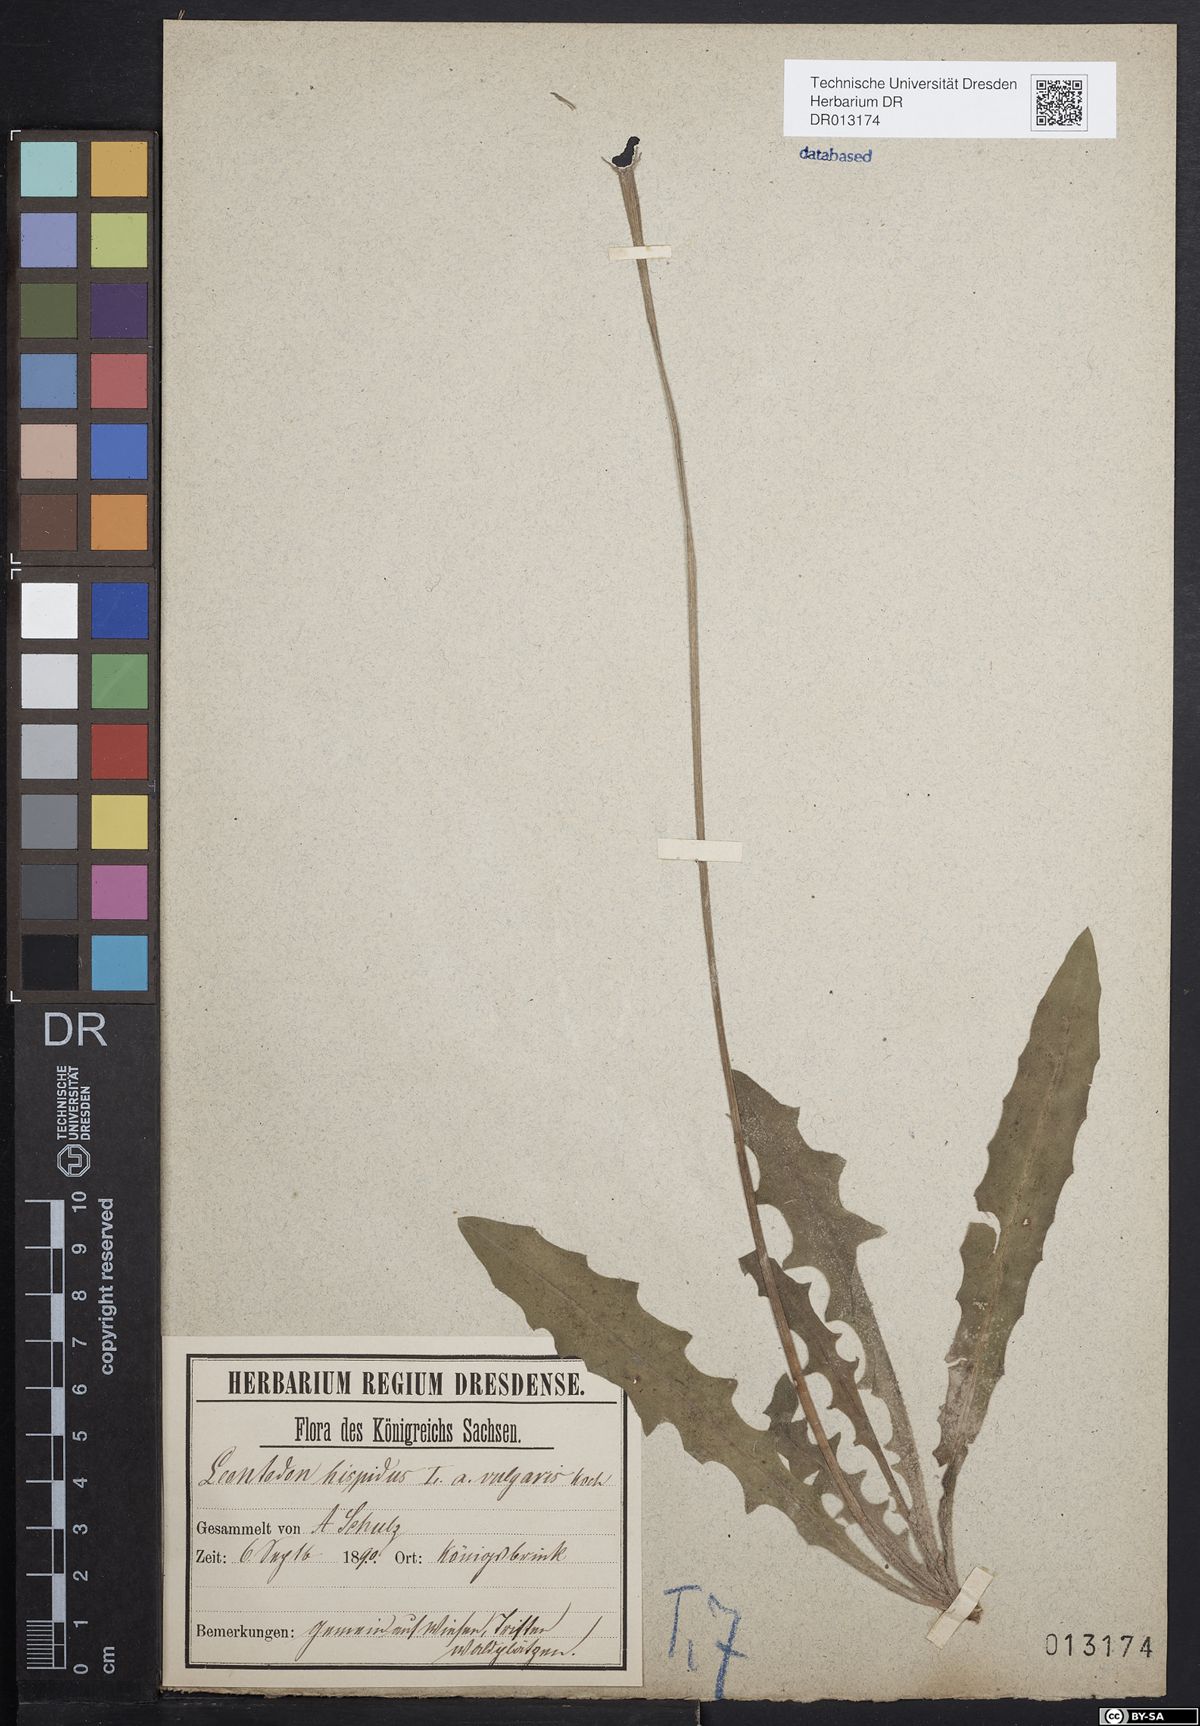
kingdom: Plantae
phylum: Tracheophyta
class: Magnoliopsida
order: Asterales
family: Asteraceae
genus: Leontodon
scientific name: Leontodon hispidus
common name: Rough hawkbit
